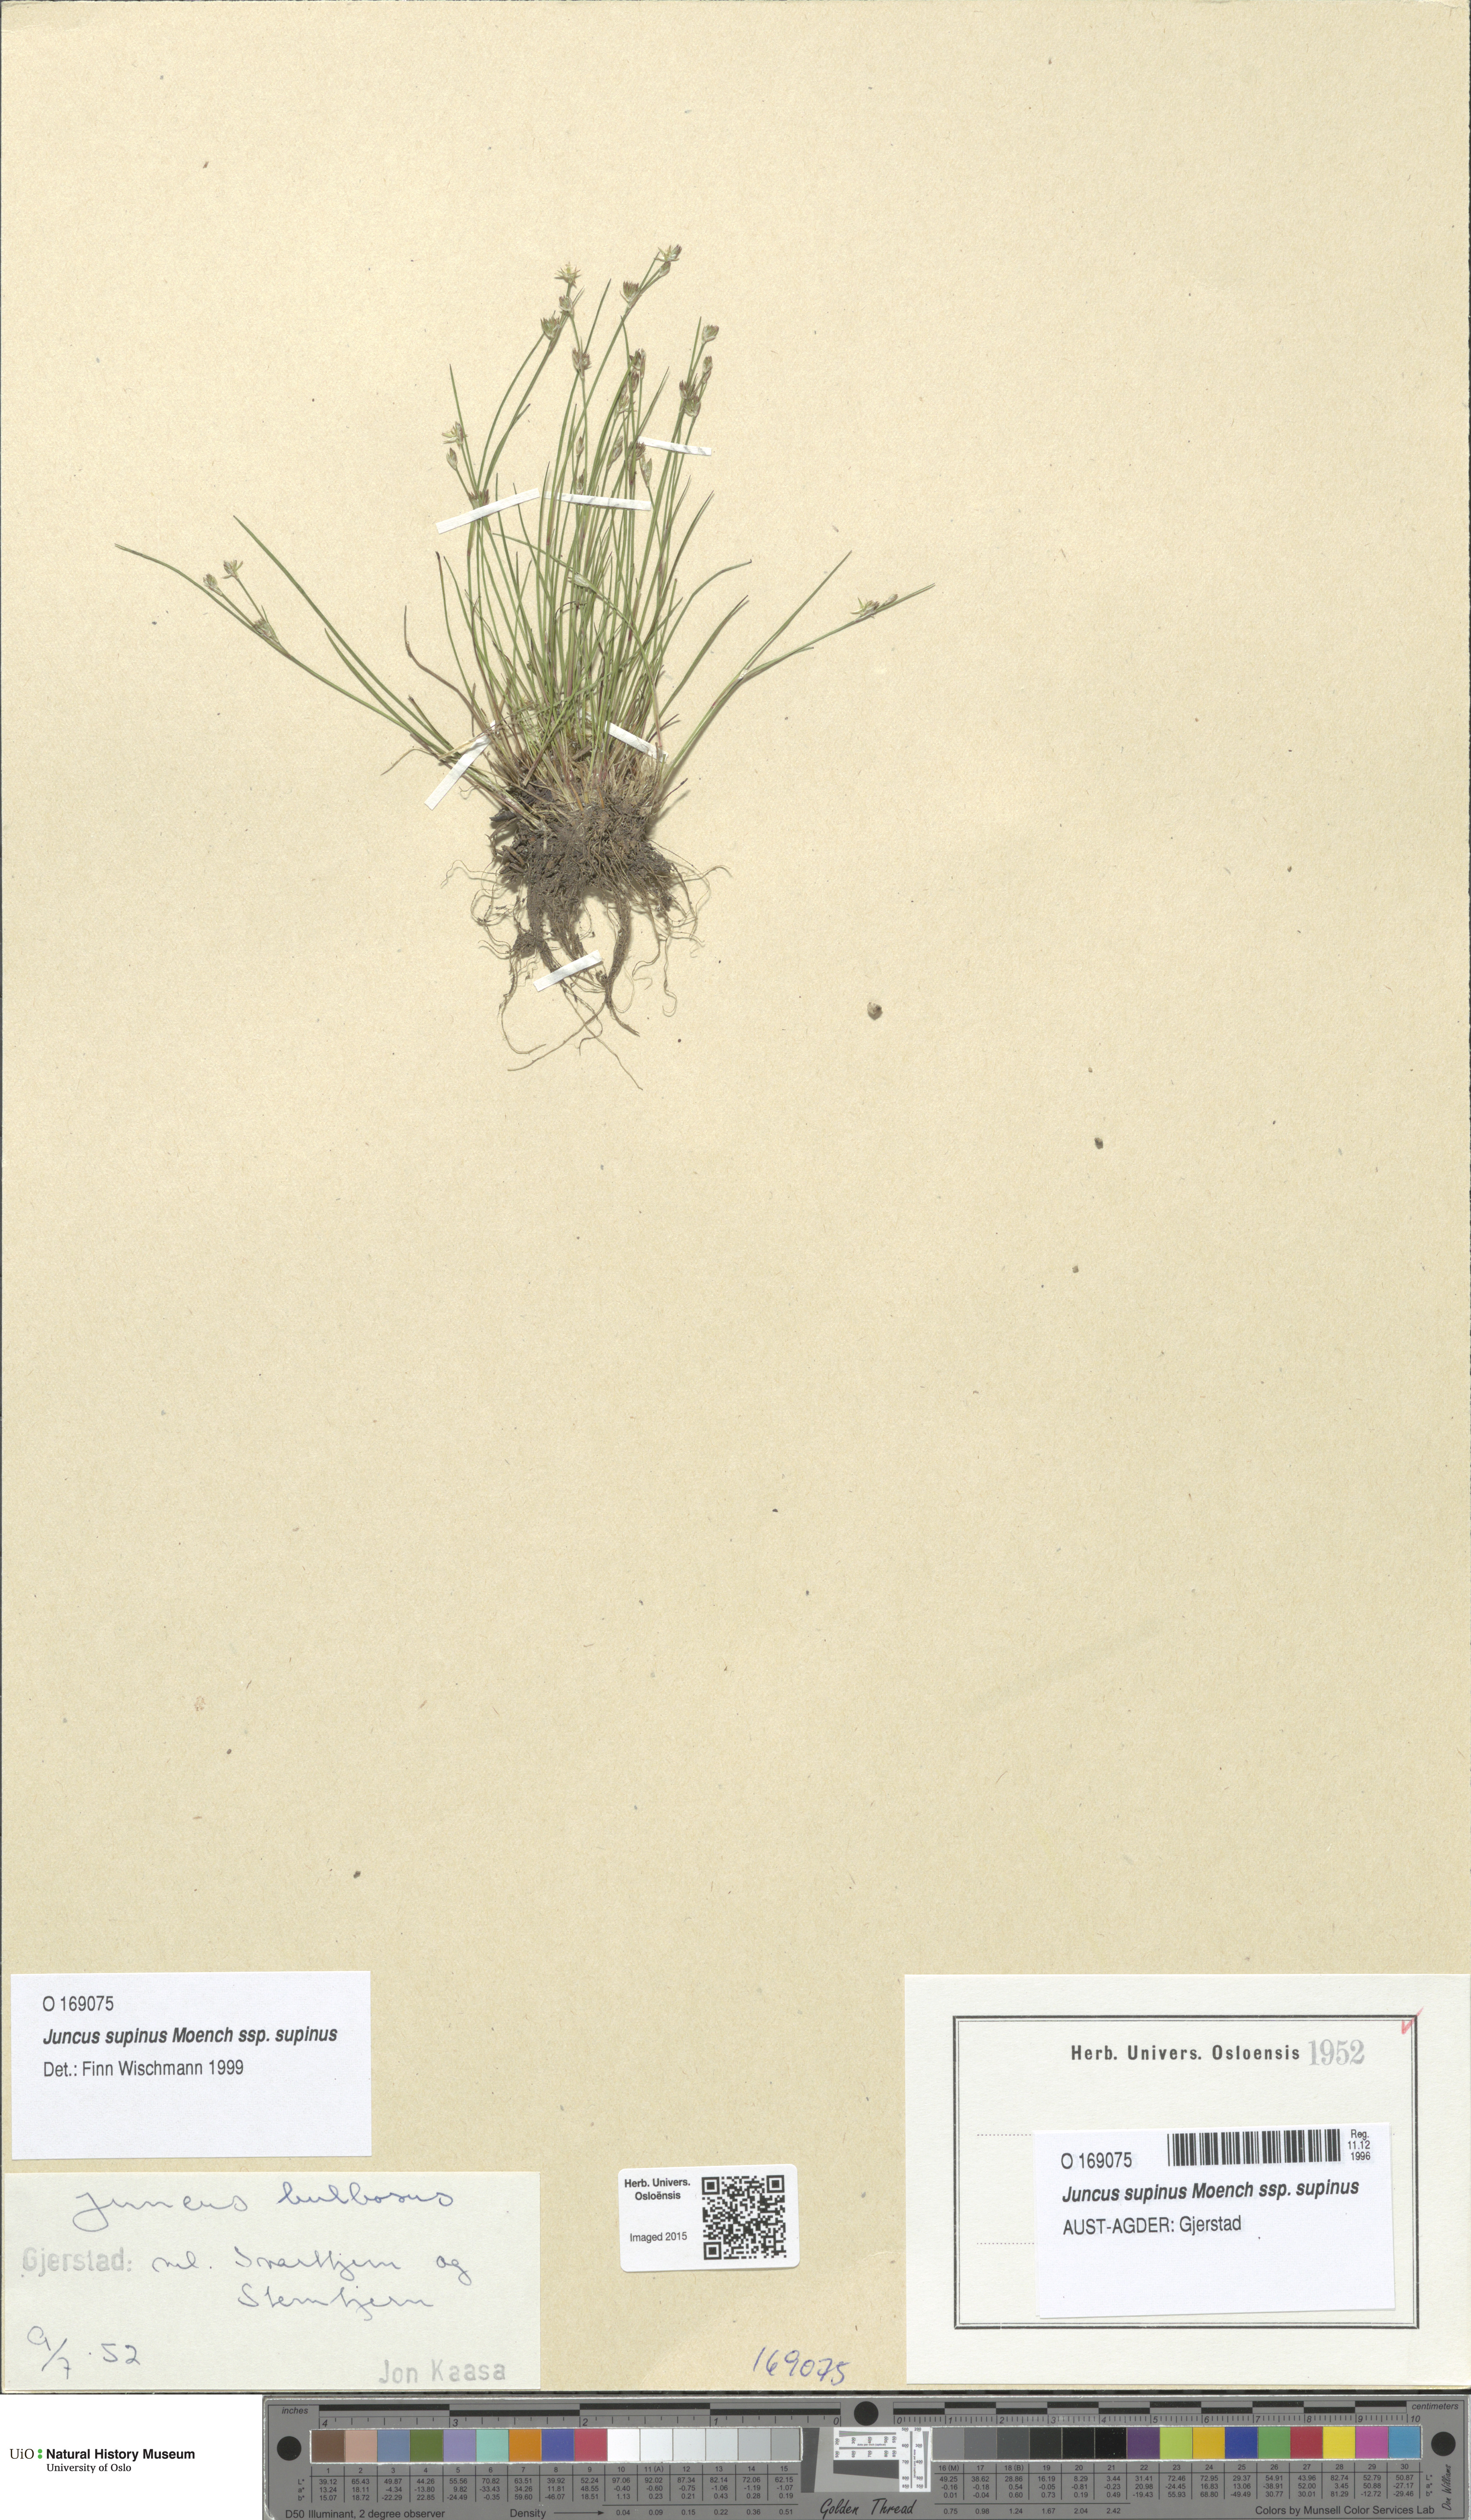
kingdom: Plantae
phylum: Tracheophyta
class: Liliopsida
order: Poales
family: Juncaceae
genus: Juncus
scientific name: Juncus bulbosus
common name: Bulbous rush
